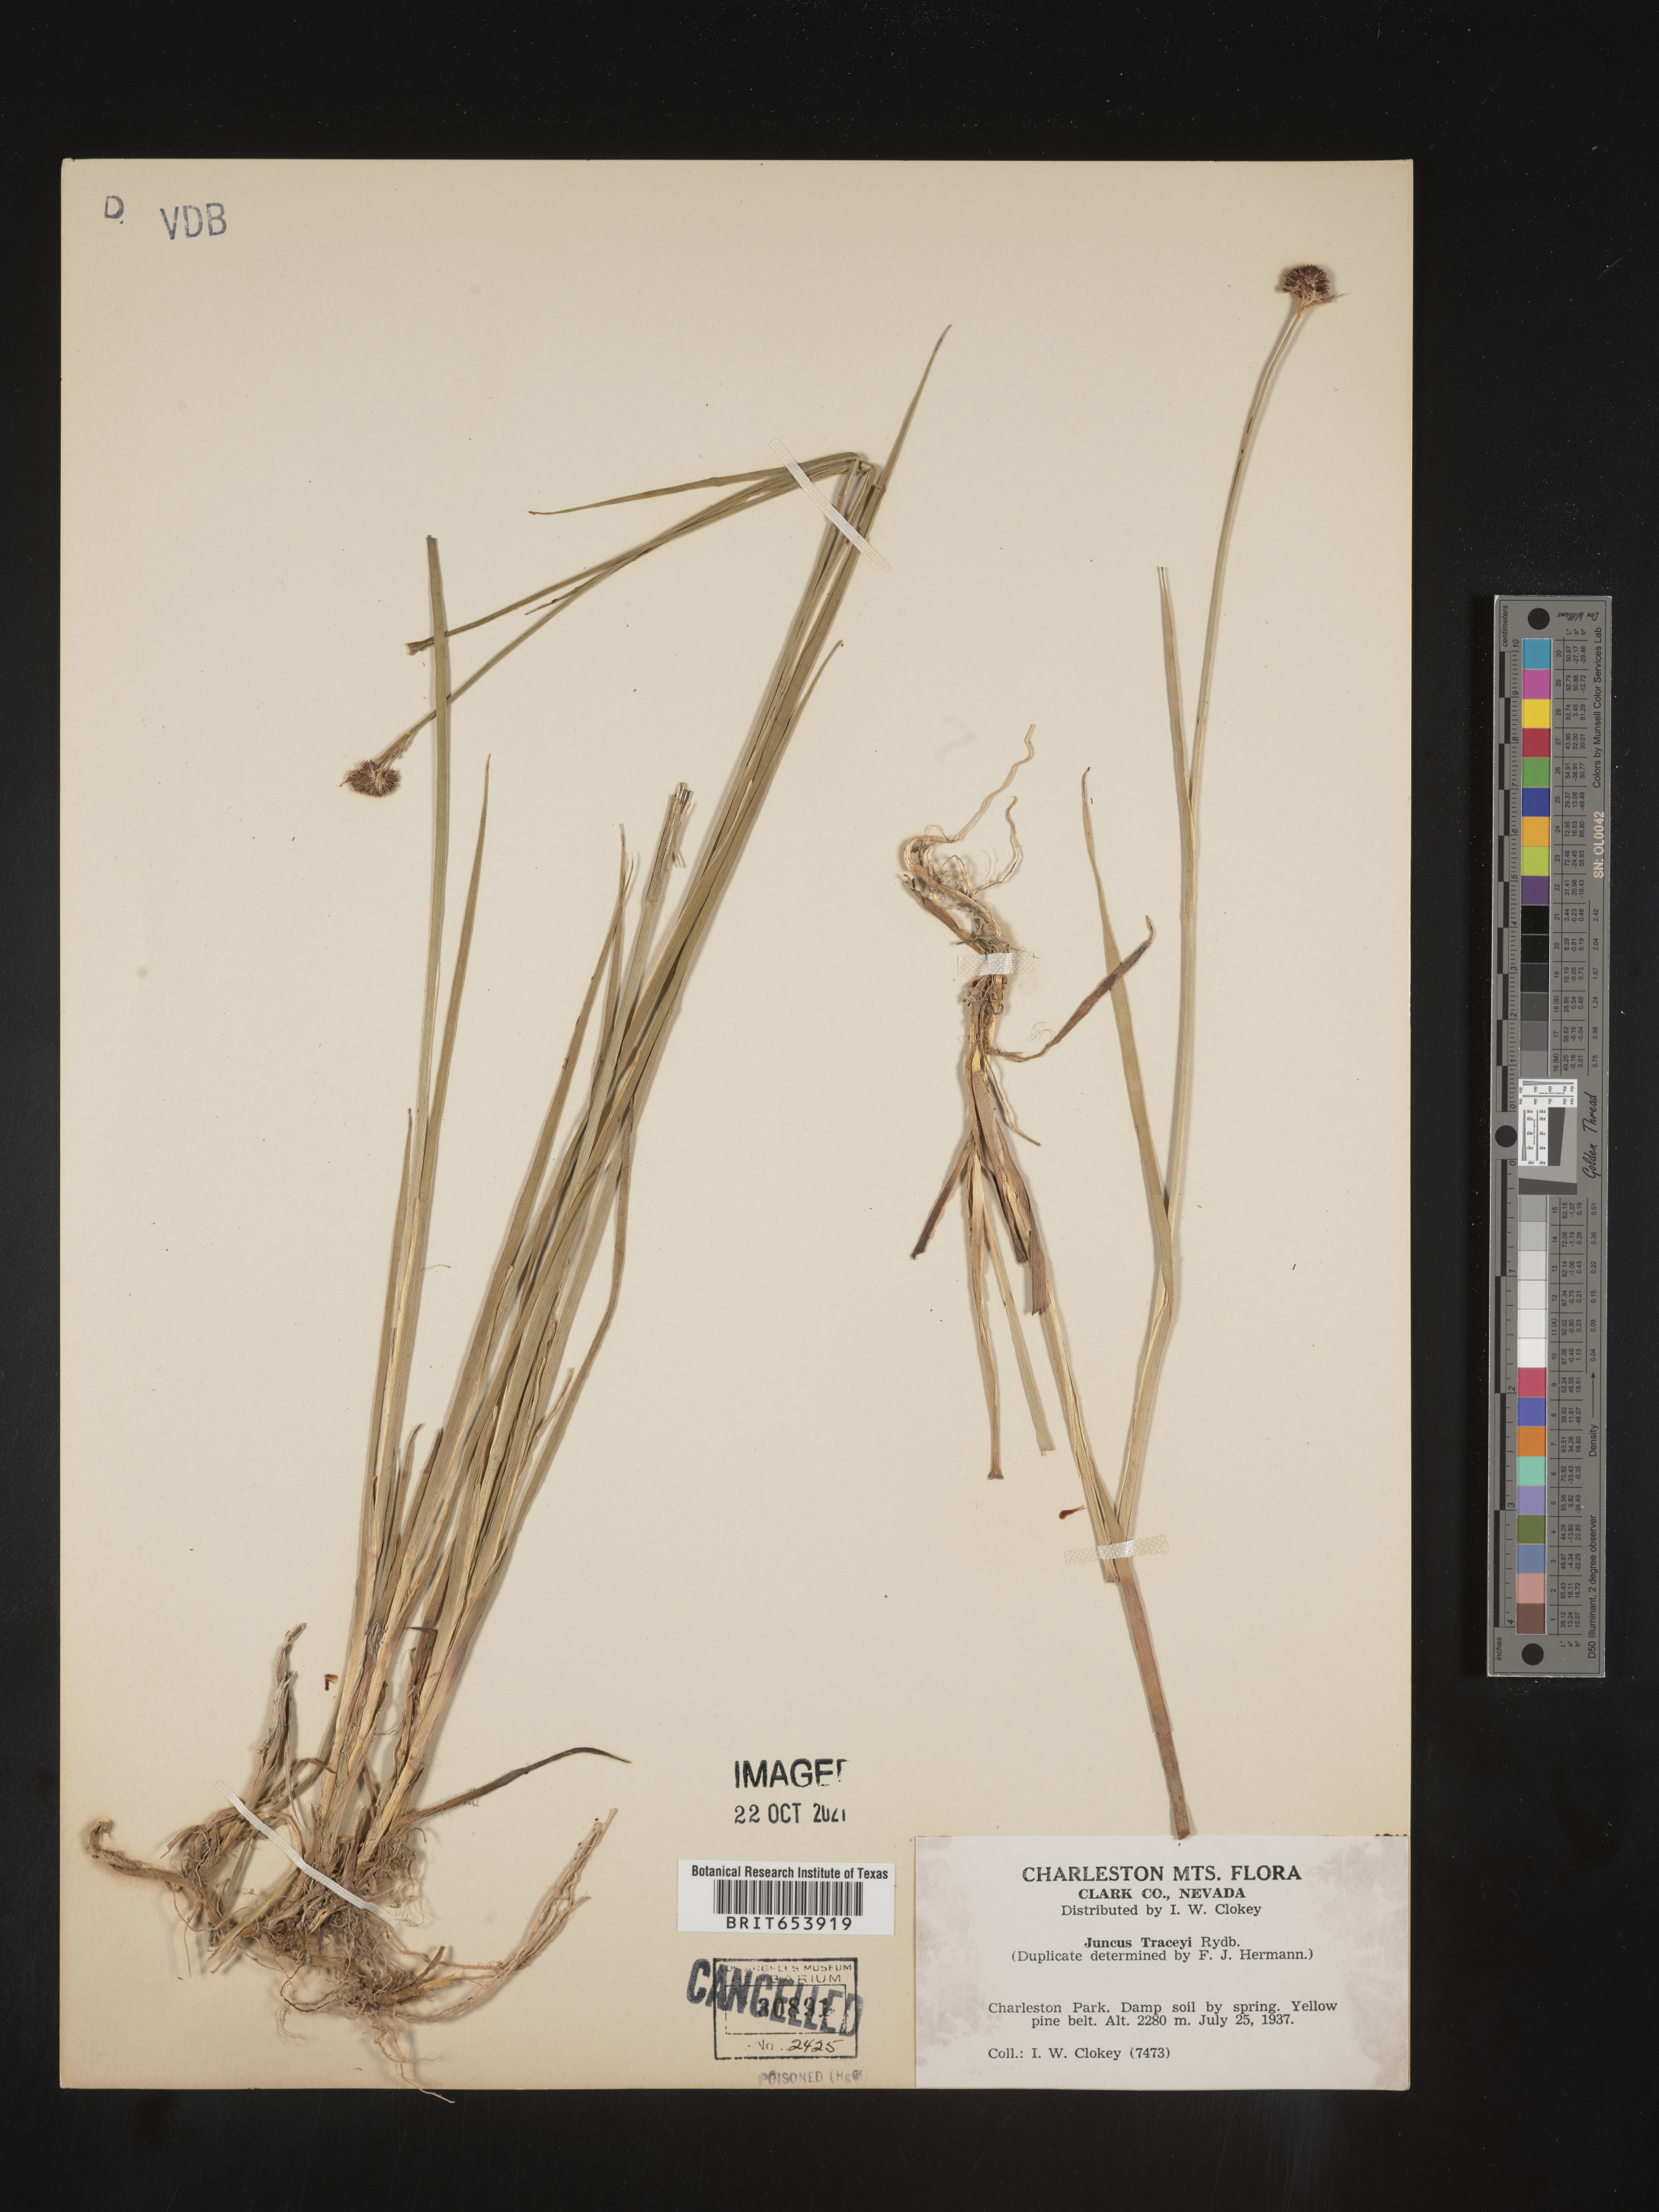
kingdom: Plantae
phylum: Tracheophyta
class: Liliopsida
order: Poales
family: Juncaceae
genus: Juncus
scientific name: Juncus tracyi
